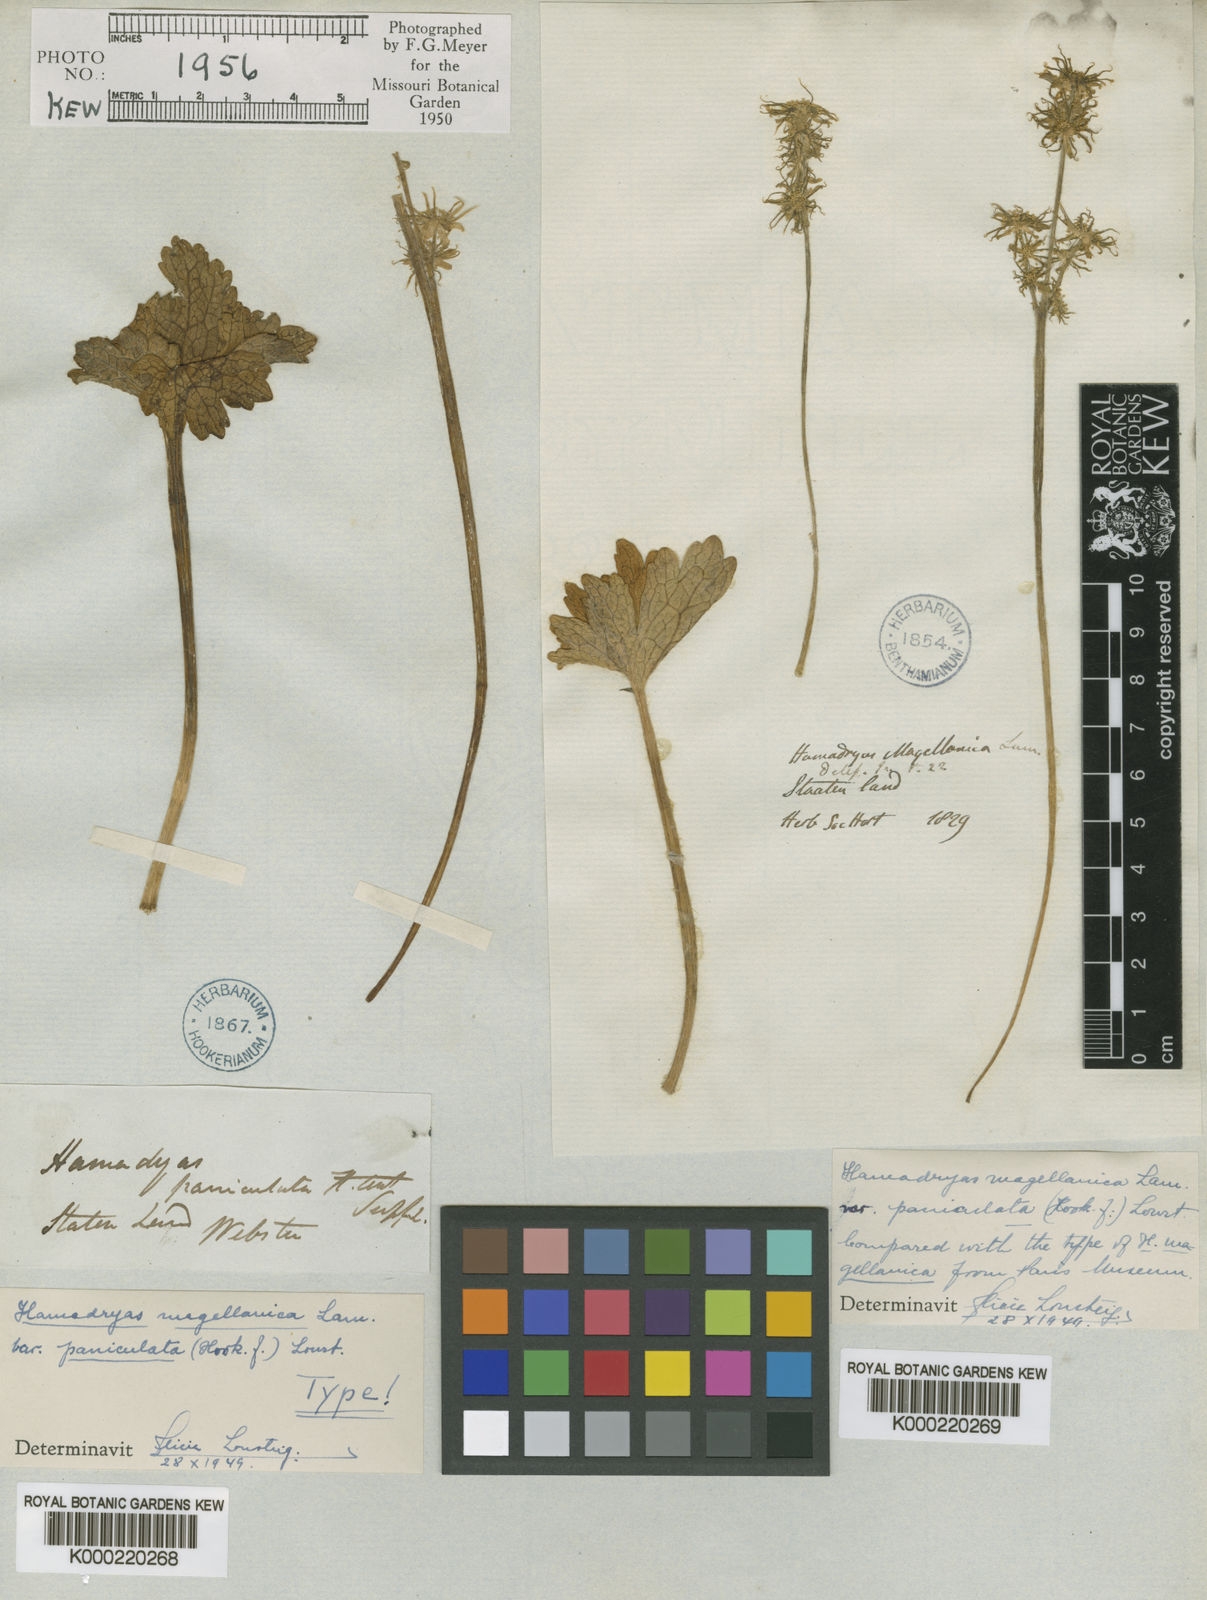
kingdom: Plantae
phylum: Tracheophyta
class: Magnoliopsida
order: Ranunculales
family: Ranunculaceae
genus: Hamadryas
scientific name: Hamadryas magellanica
